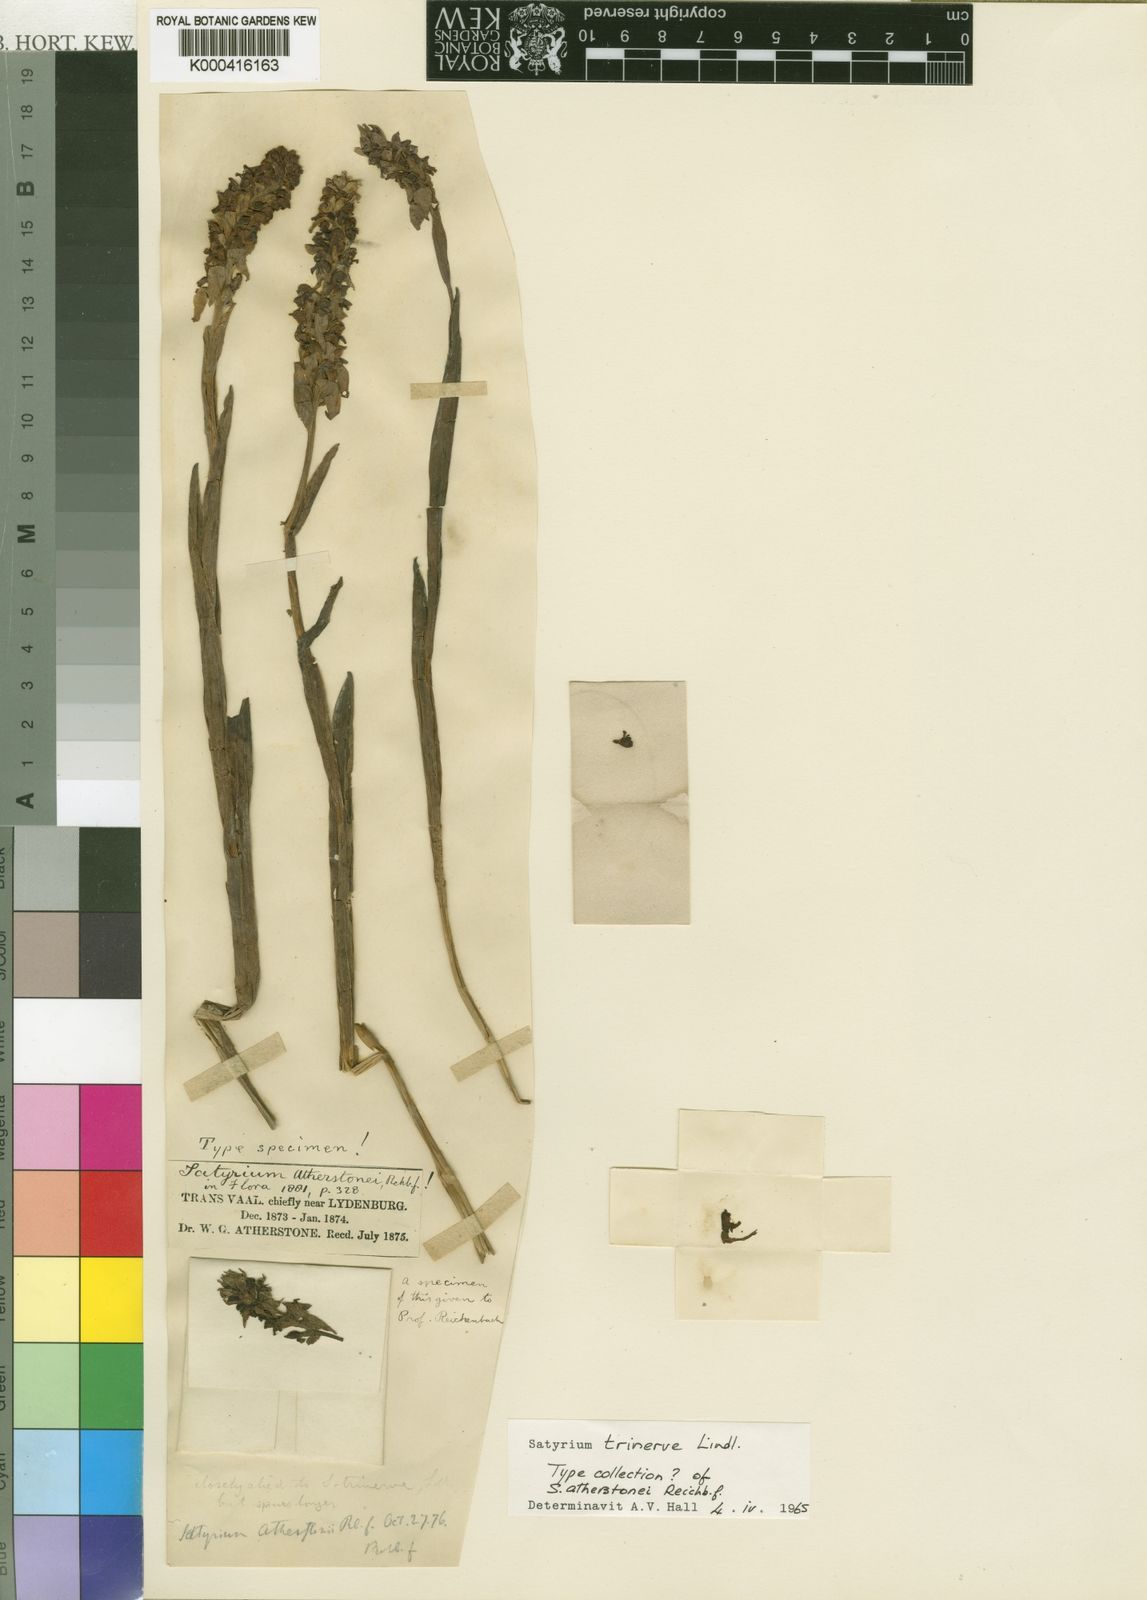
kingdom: Plantae
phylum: Tracheophyta
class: Liliopsida
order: Asparagales
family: Orchidaceae
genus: Satyrium
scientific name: Satyrium trinerve
